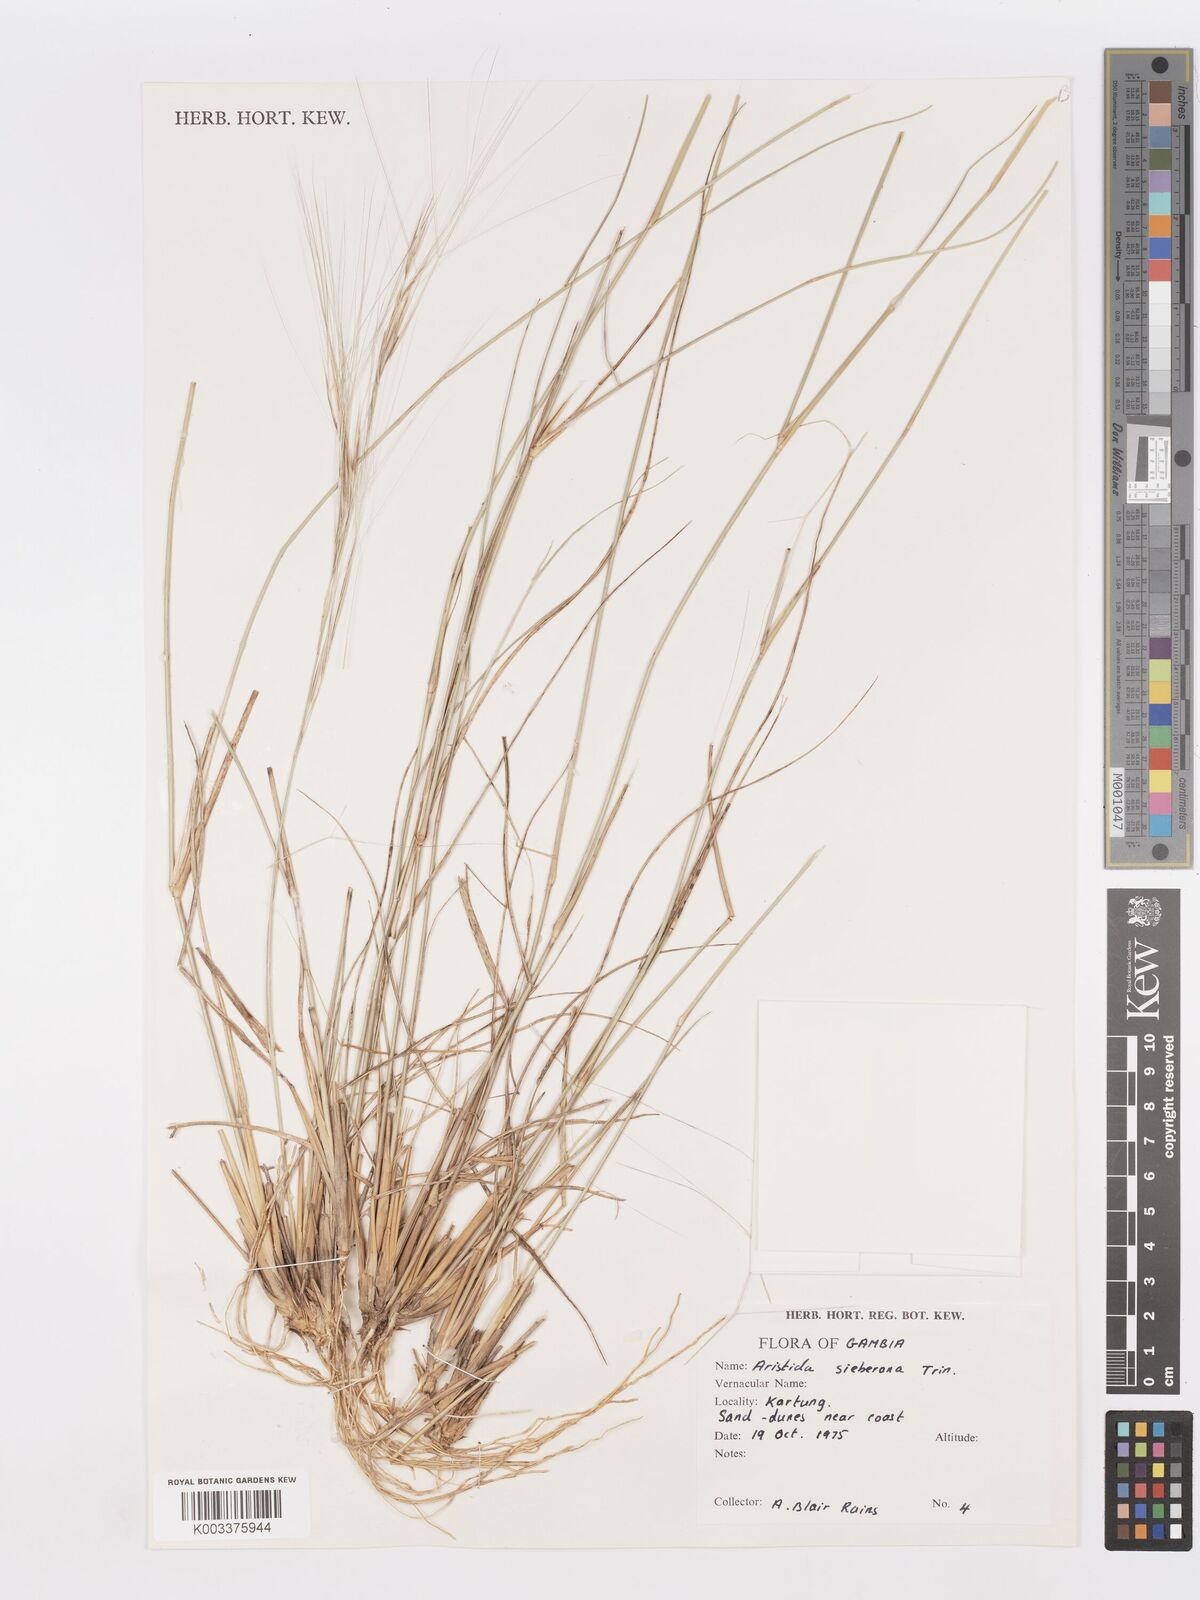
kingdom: Plantae
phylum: Tracheophyta
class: Liliopsida
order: Poales
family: Poaceae
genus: Aristida
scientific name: Aristida sieberiana
